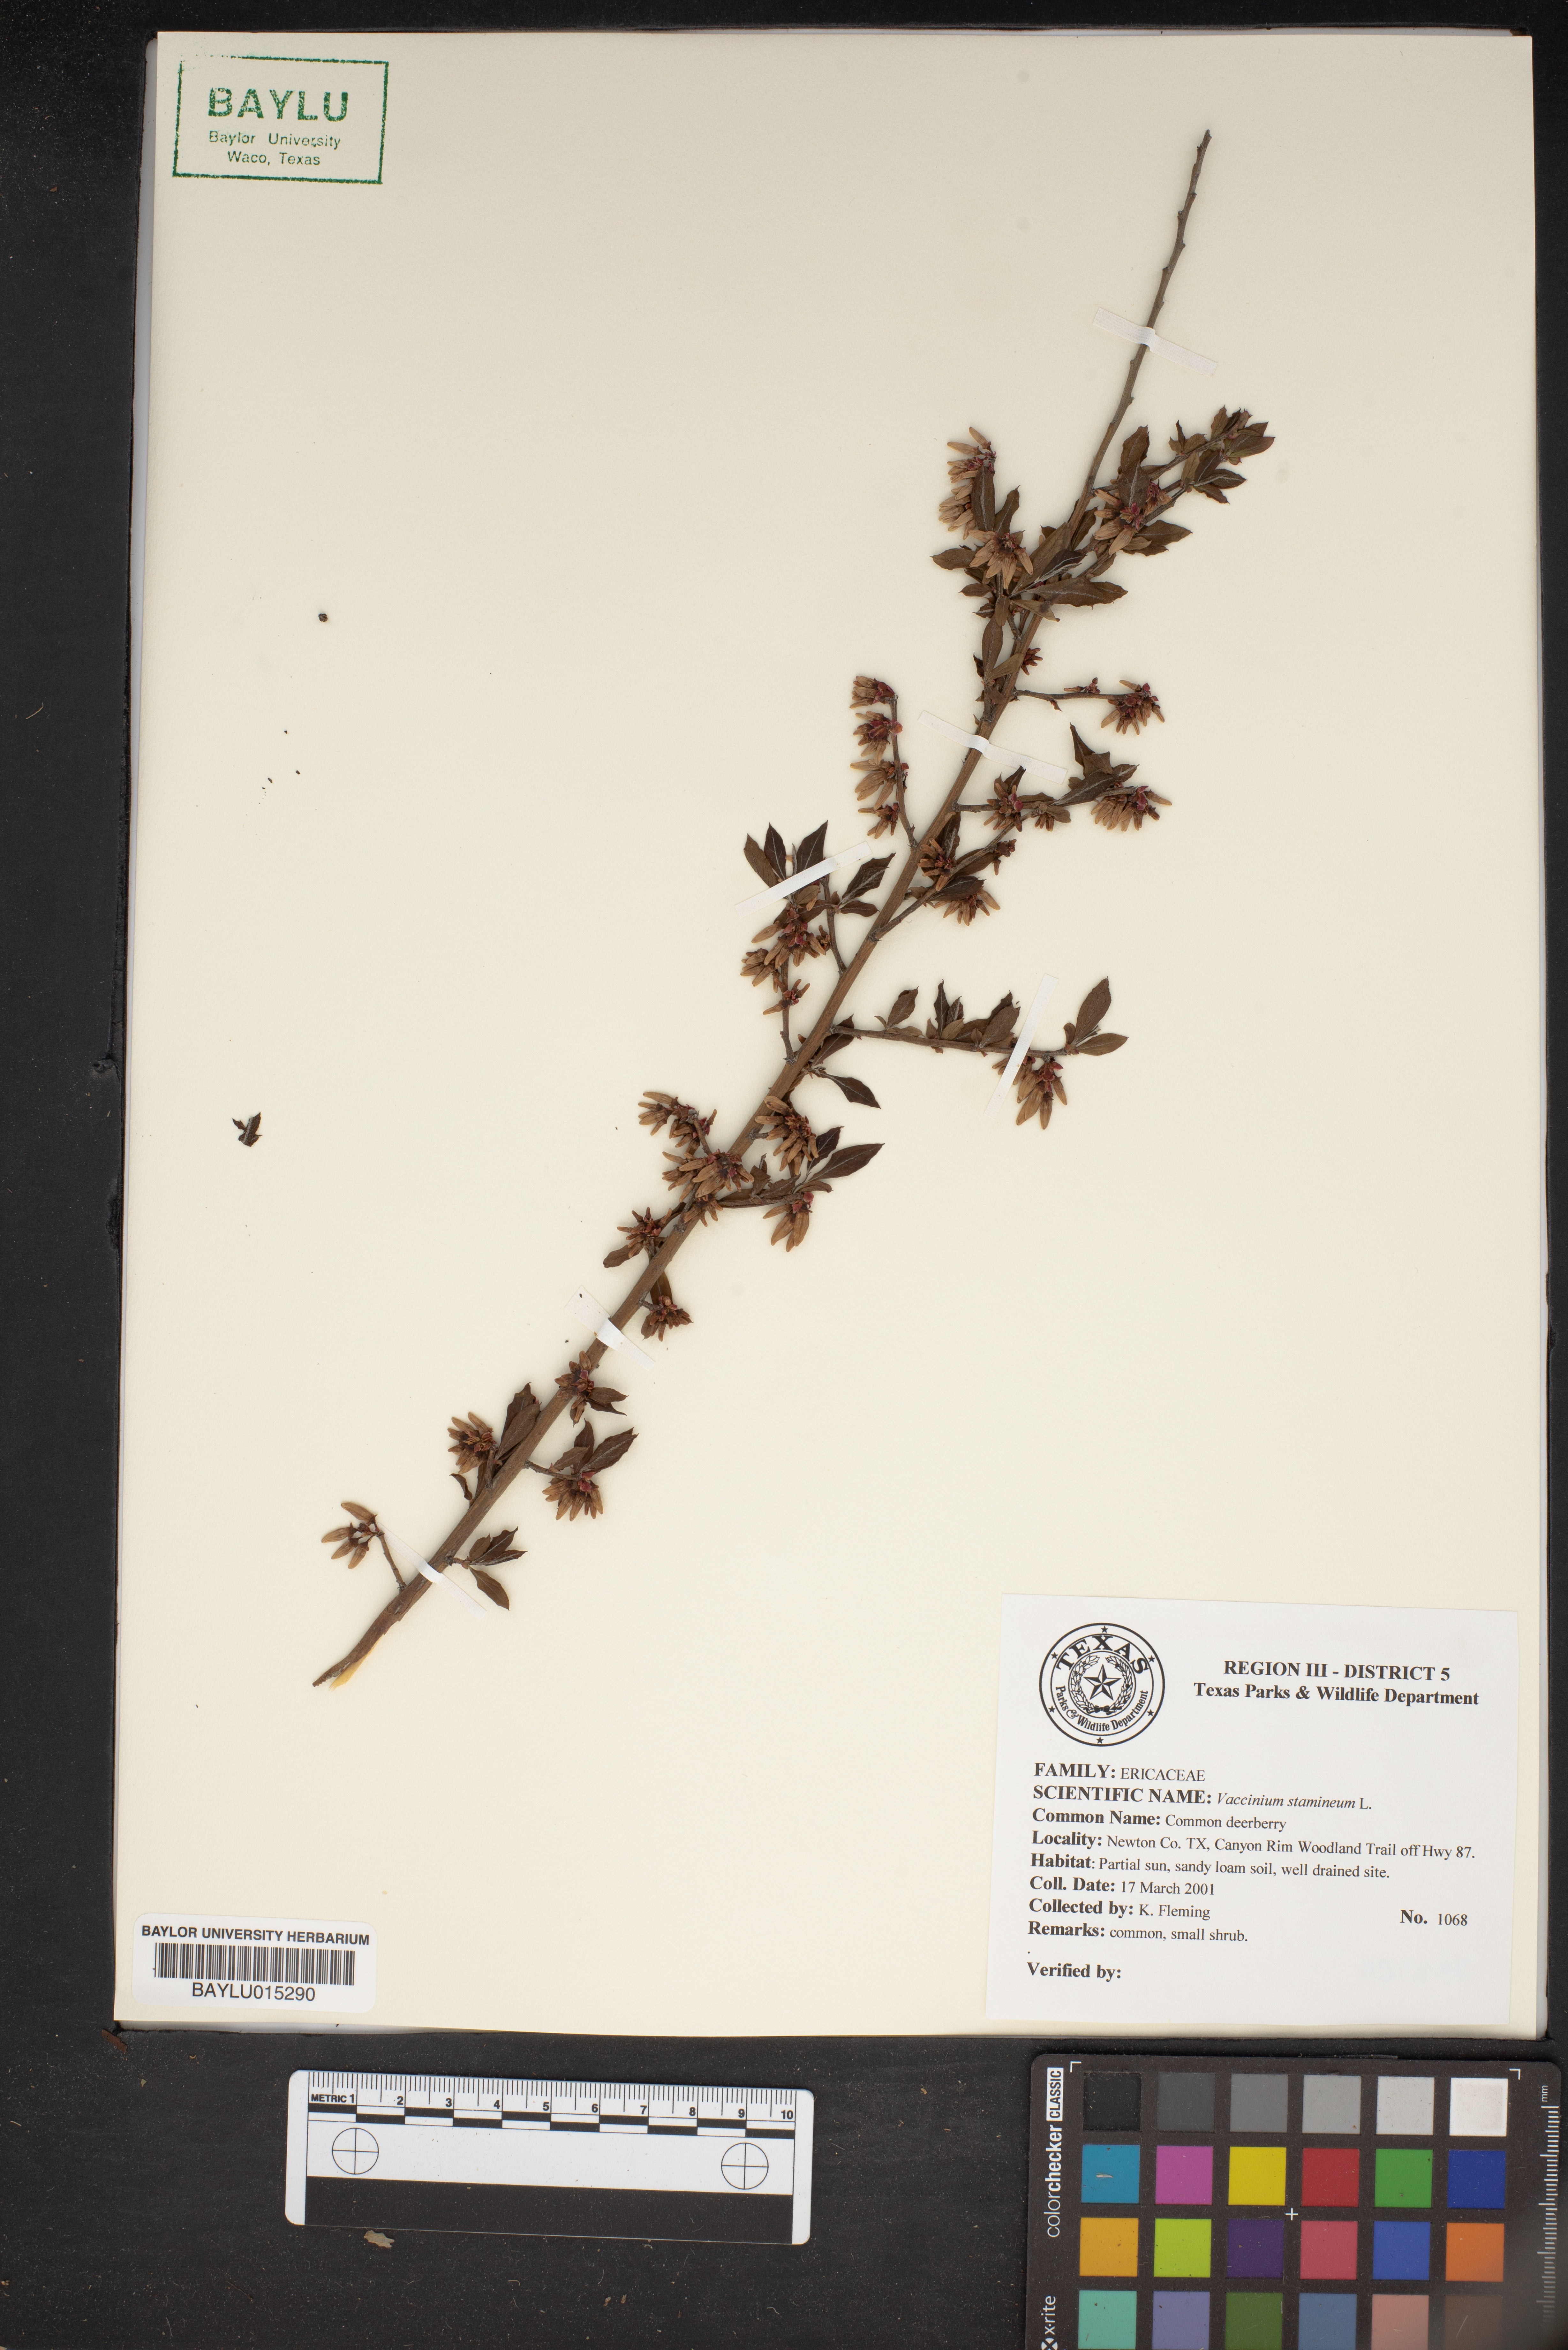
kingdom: Plantae
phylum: Tracheophyta
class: Magnoliopsida
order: Ericales
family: Ericaceae
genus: Vaccinium
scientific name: Vaccinium stamineum
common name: Deerberry
